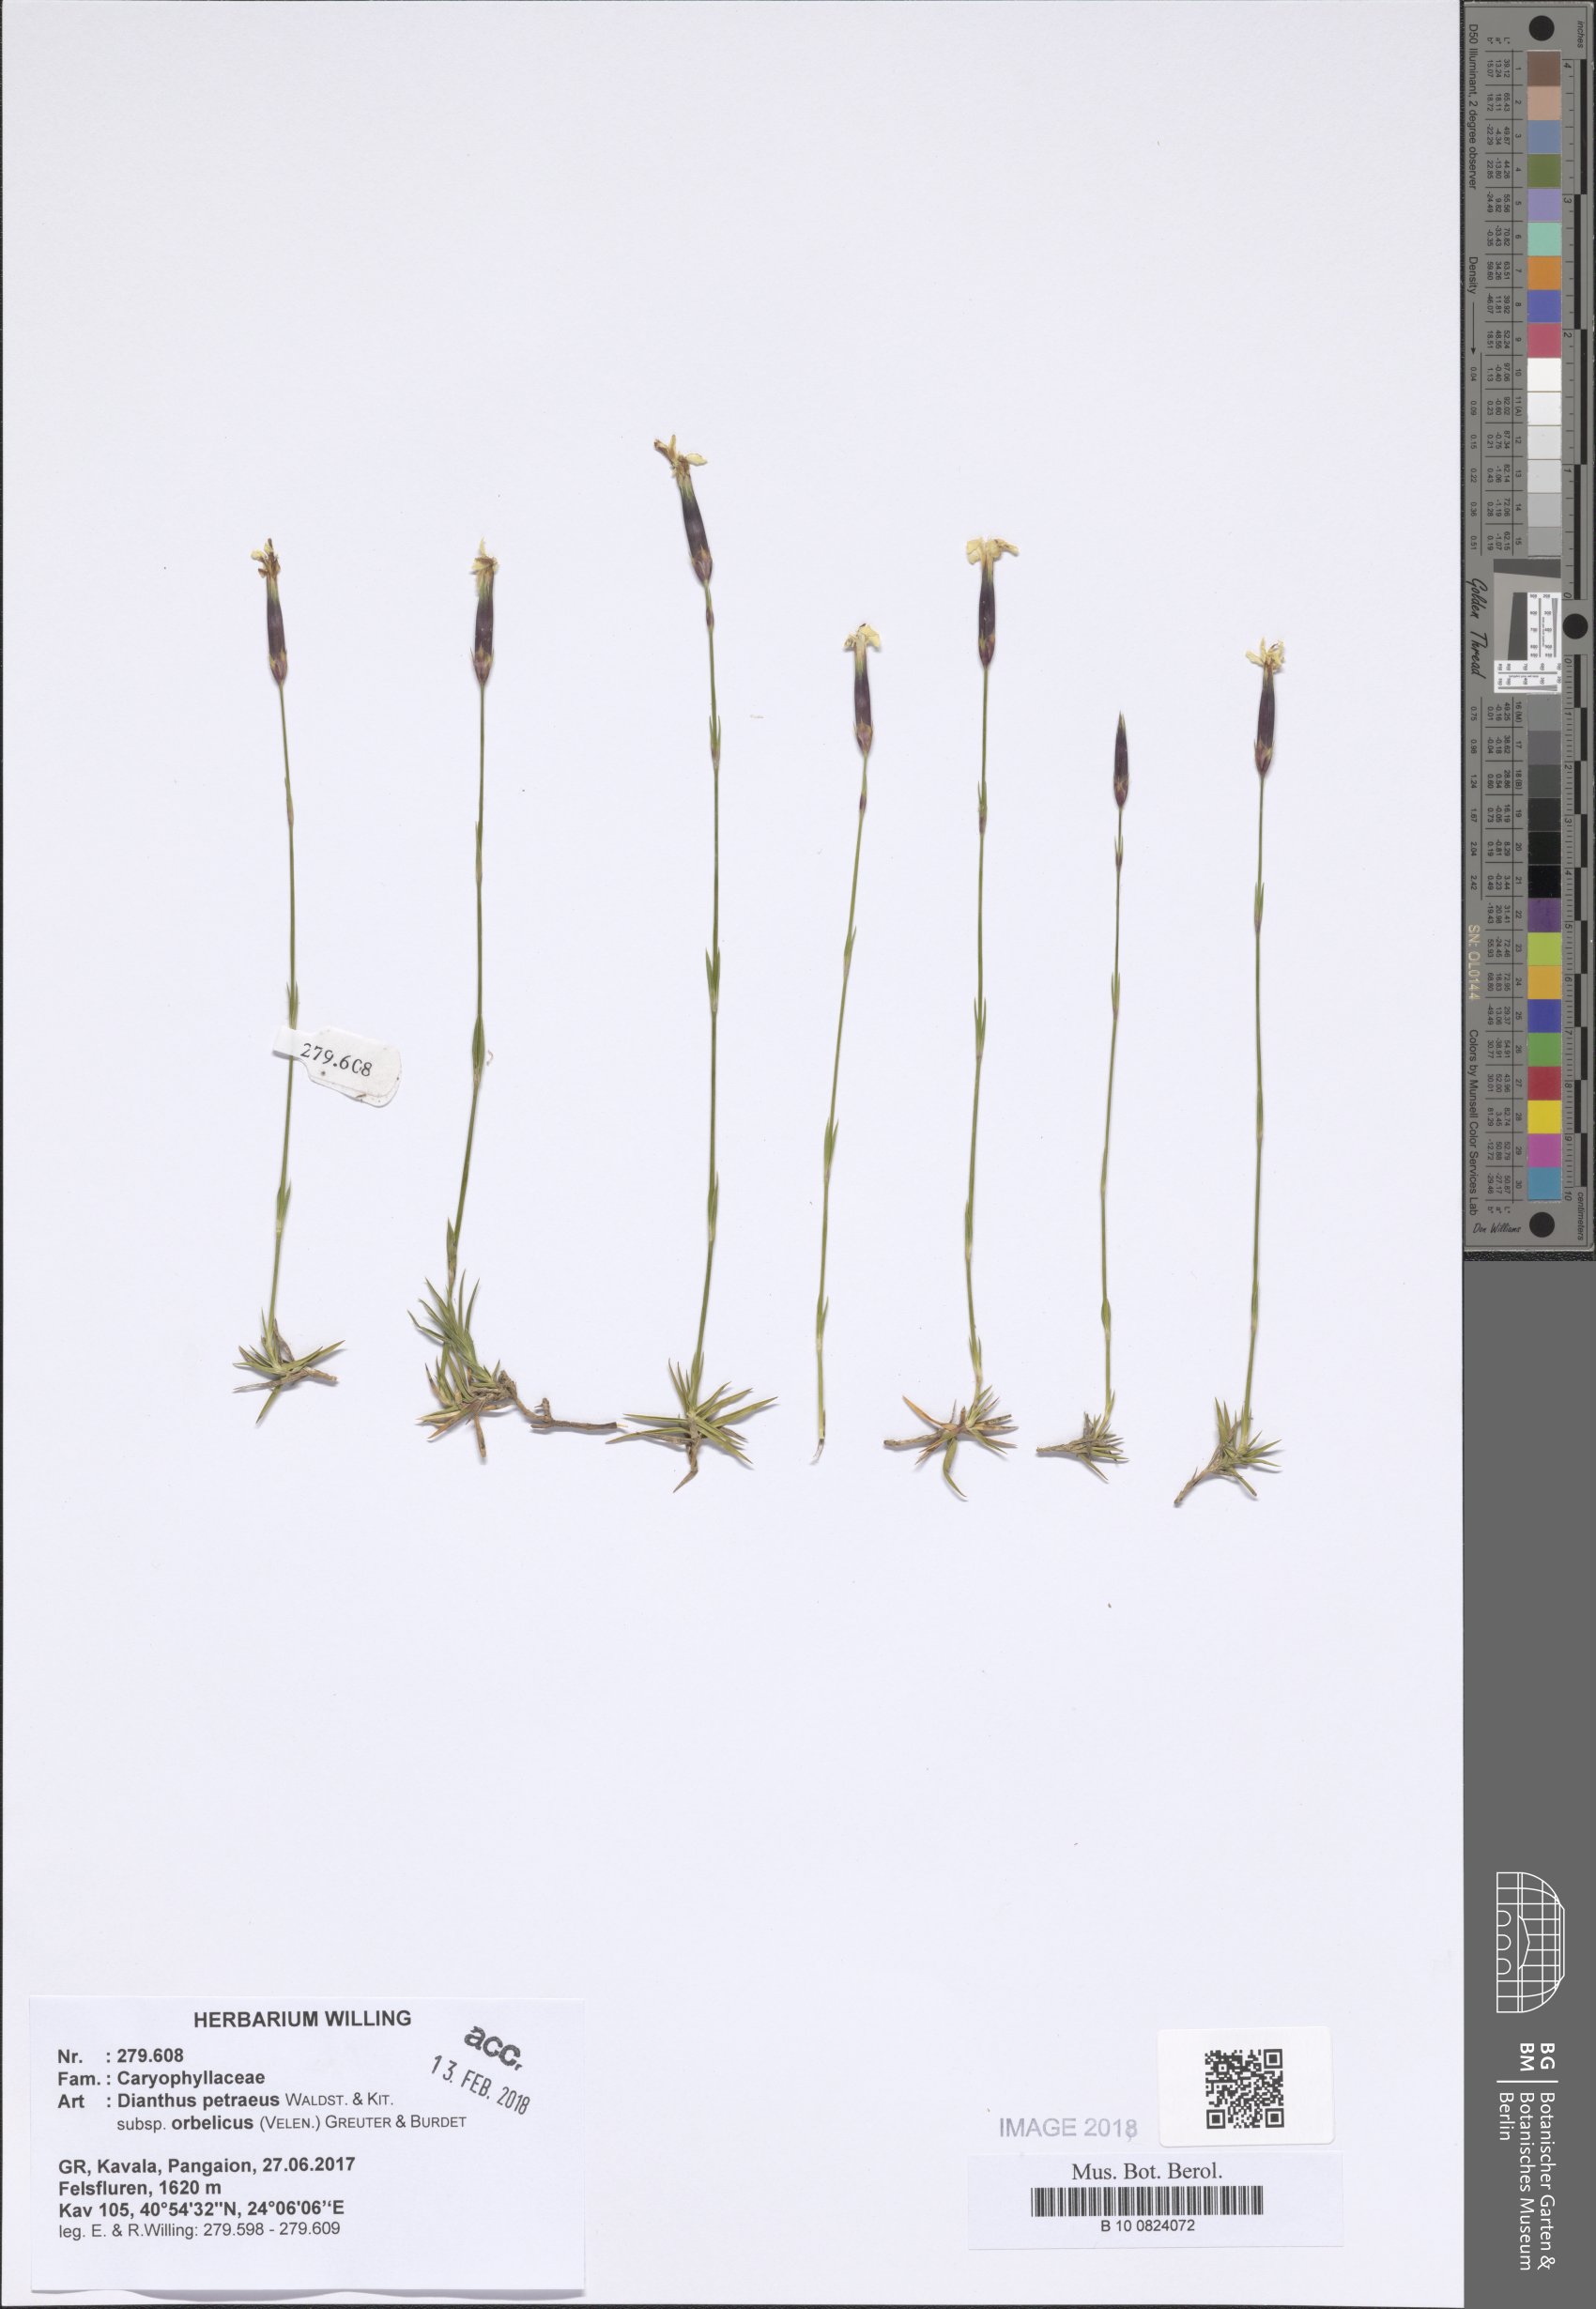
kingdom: Plantae
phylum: Tracheophyta
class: Magnoliopsida
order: Caryophyllales
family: Caryophyllaceae
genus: Dianthus
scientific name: Dianthus petraeus
